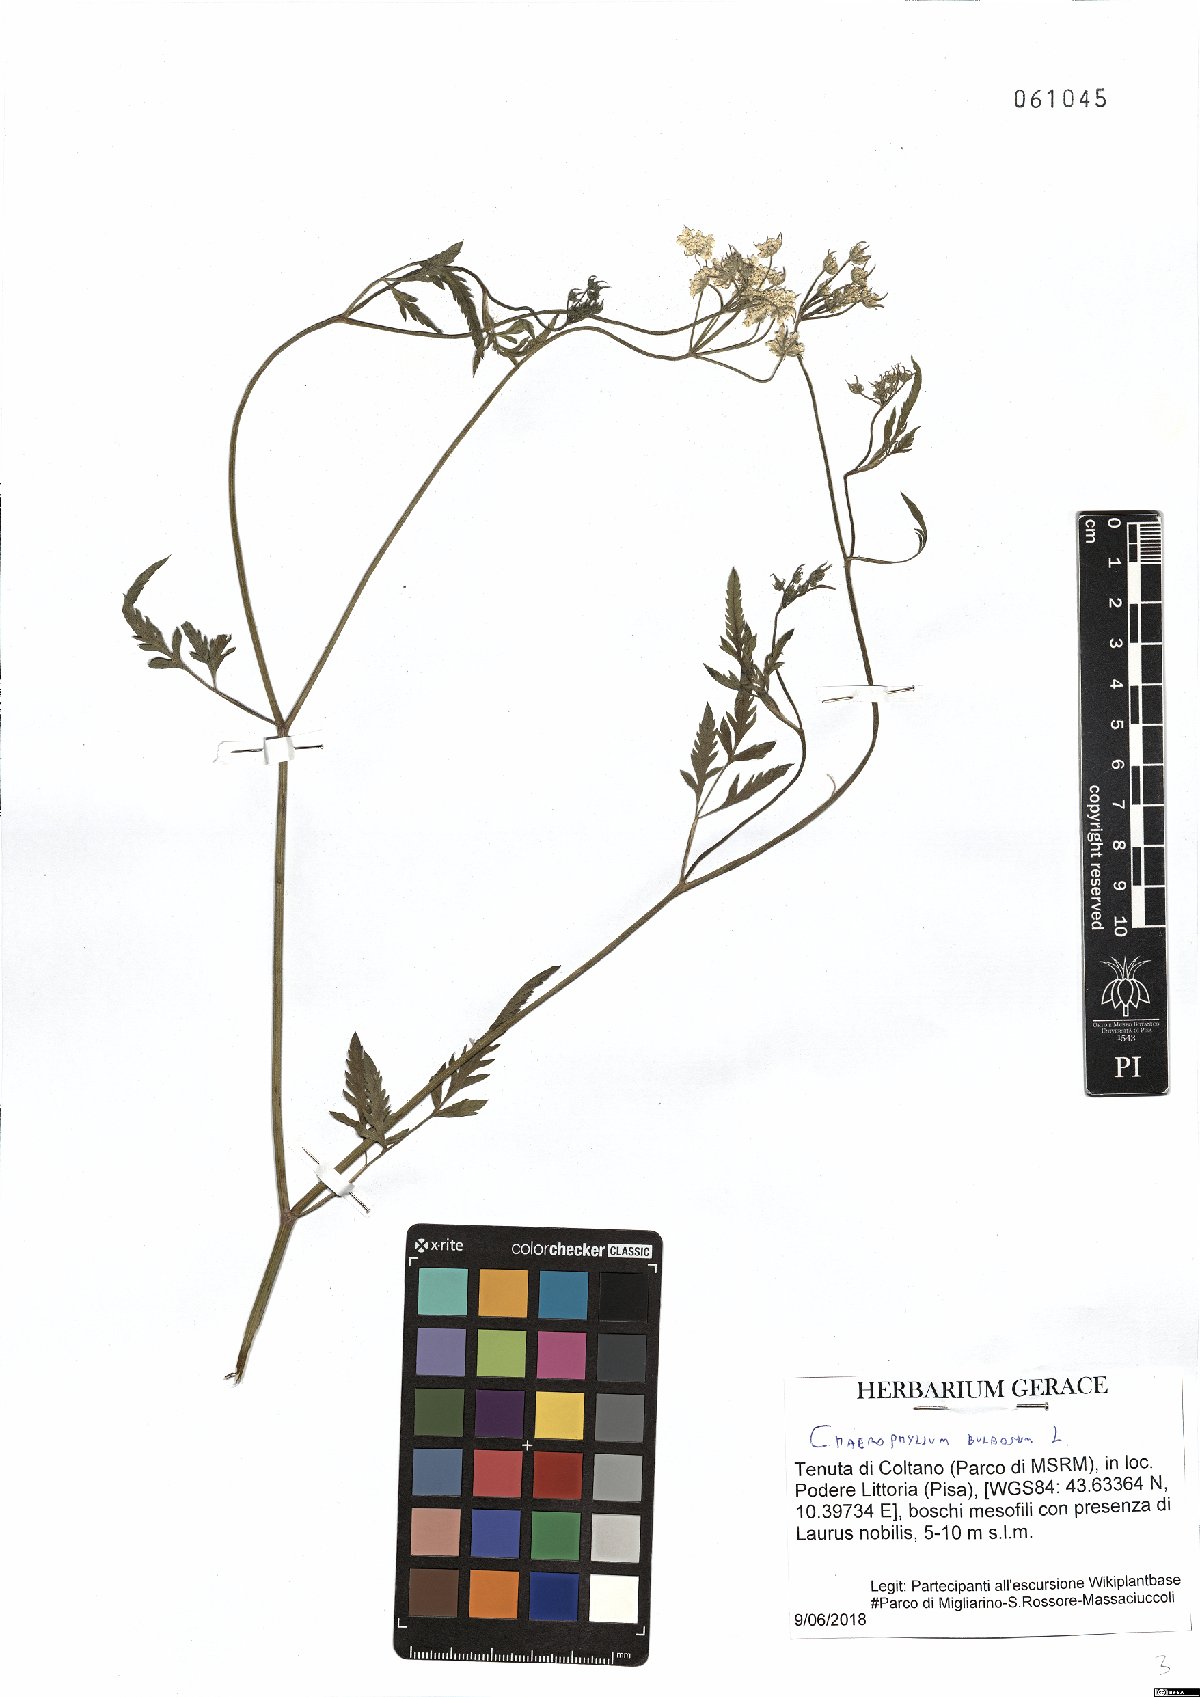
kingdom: Plantae
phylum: Tracheophyta
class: Magnoliopsida
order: Apiales
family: Apiaceae
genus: Chaerophyllum
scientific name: Chaerophyllum bulbosum
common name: Bulbous chervil
